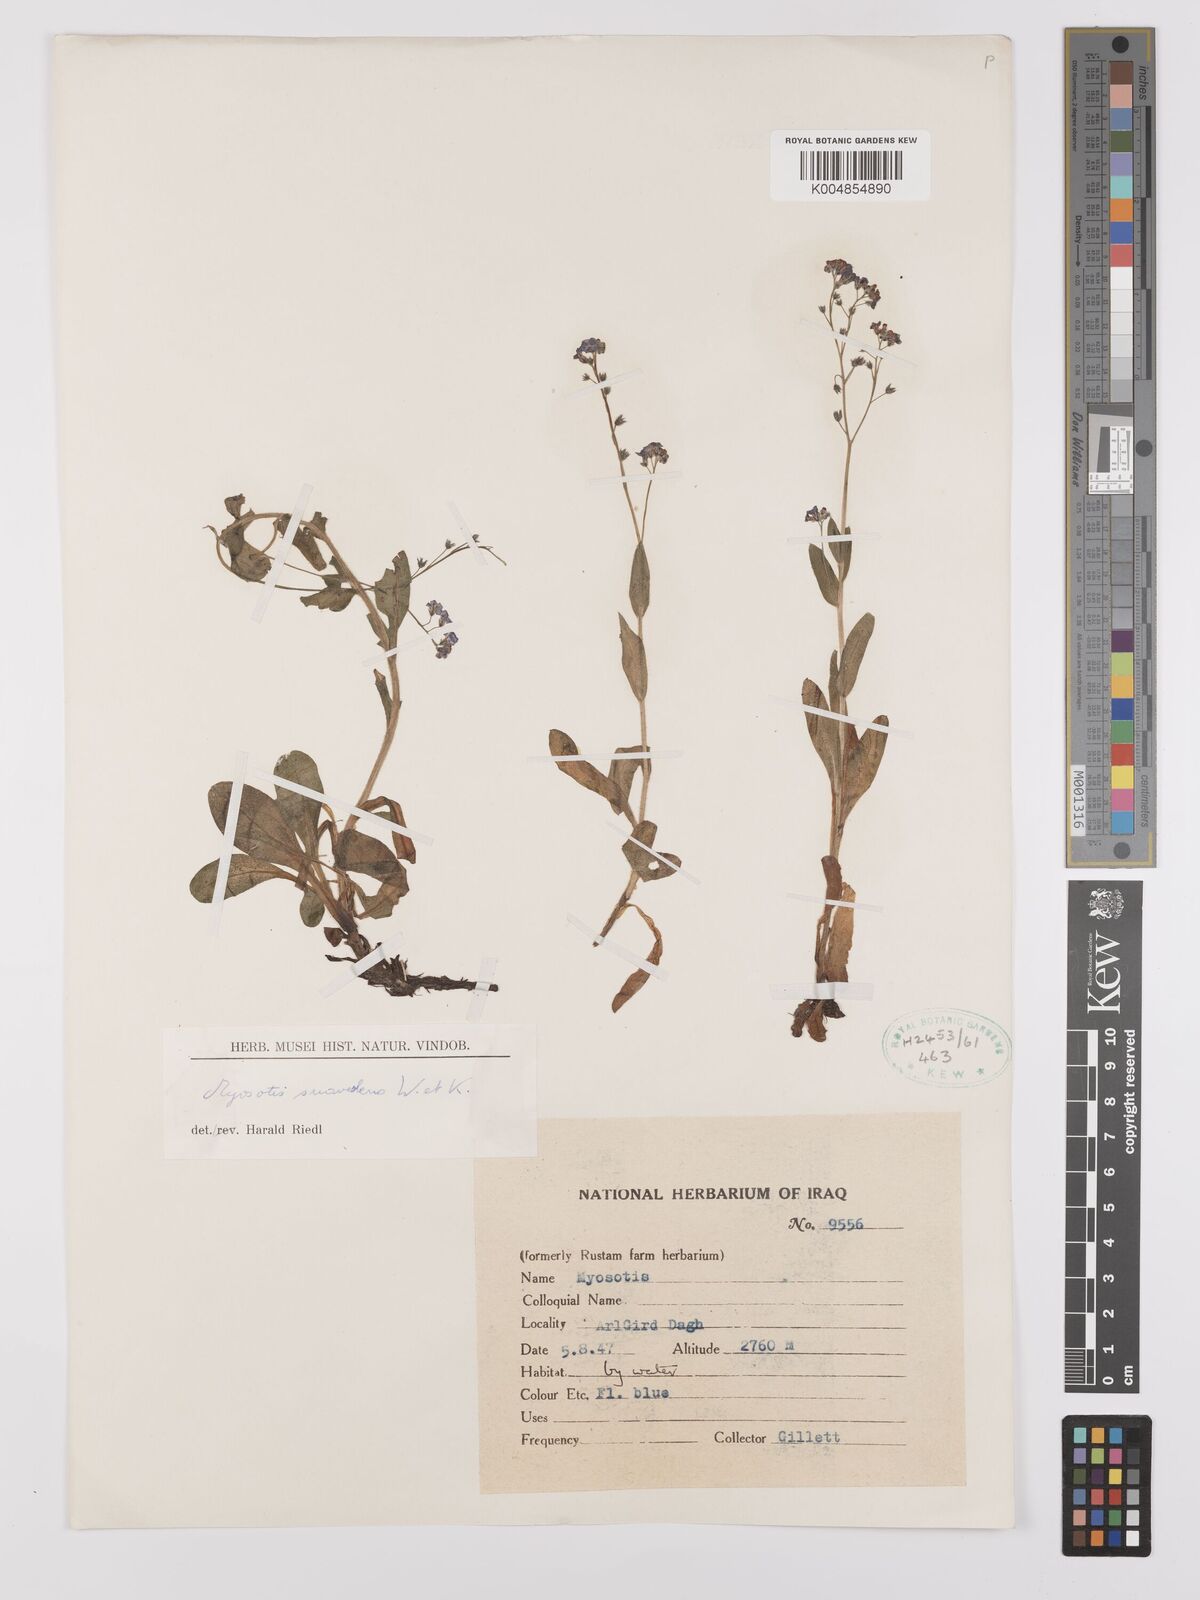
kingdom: Plantae
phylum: Tracheophyta
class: Magnoliopsida
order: Boraginales
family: Boraginaceae
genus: Myosotis
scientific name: Myosotis
